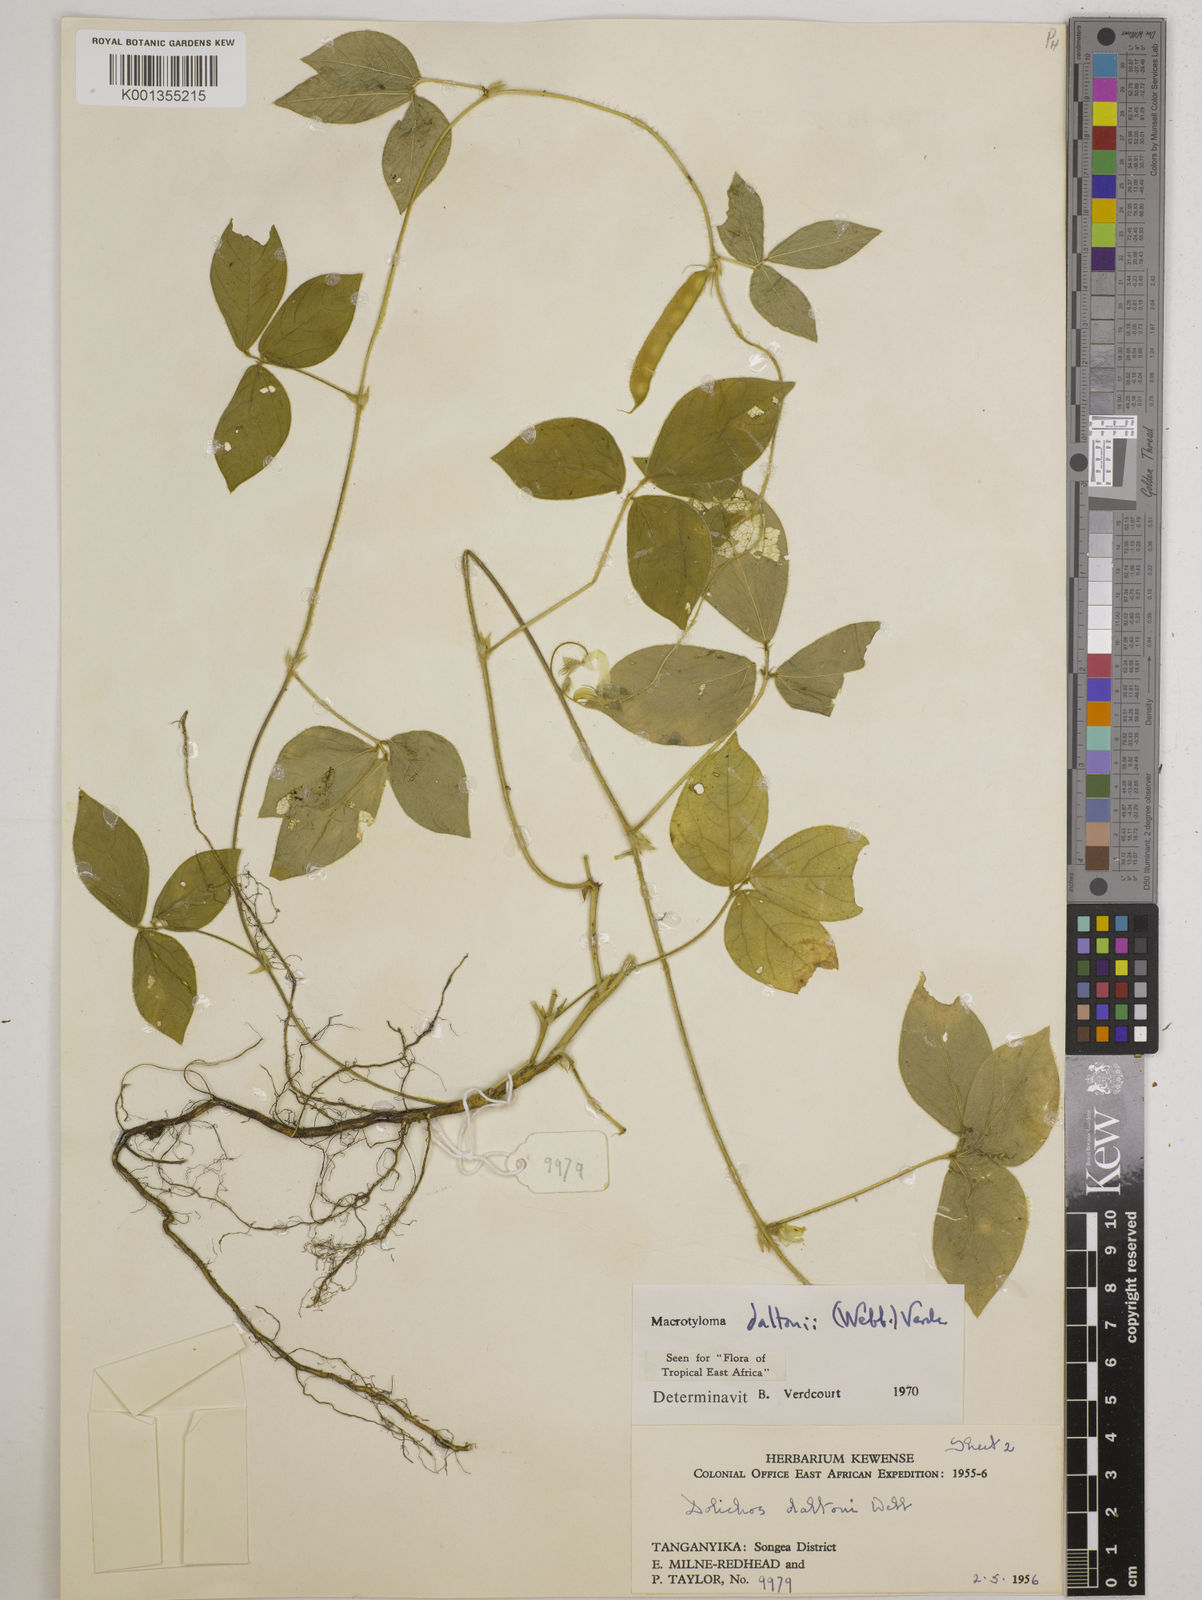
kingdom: Plantae
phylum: Tracheophyta
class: Magnoliopsida
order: Fabales
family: Fabaceae
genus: Macrotyloma
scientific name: Macrotyloma daltonii
